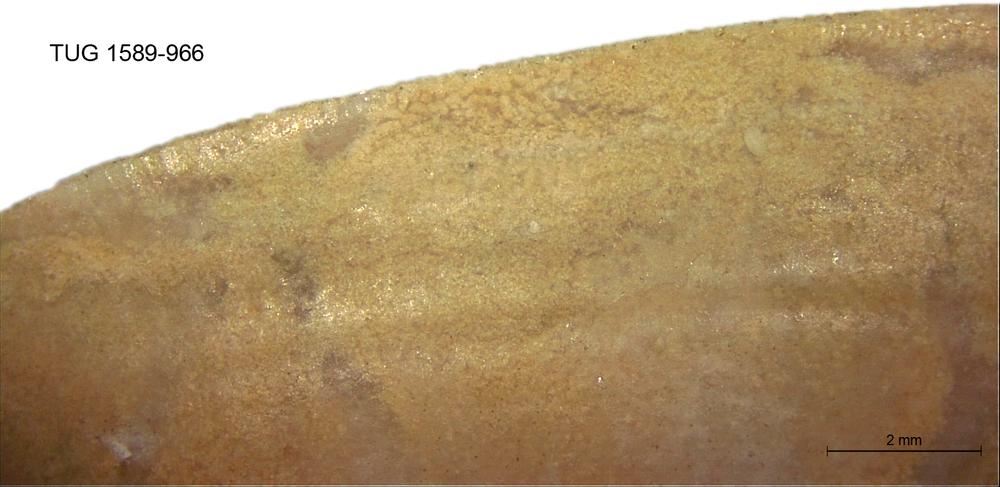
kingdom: Animalia
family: Coprulidae
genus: Coprulus
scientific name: Coprulus
